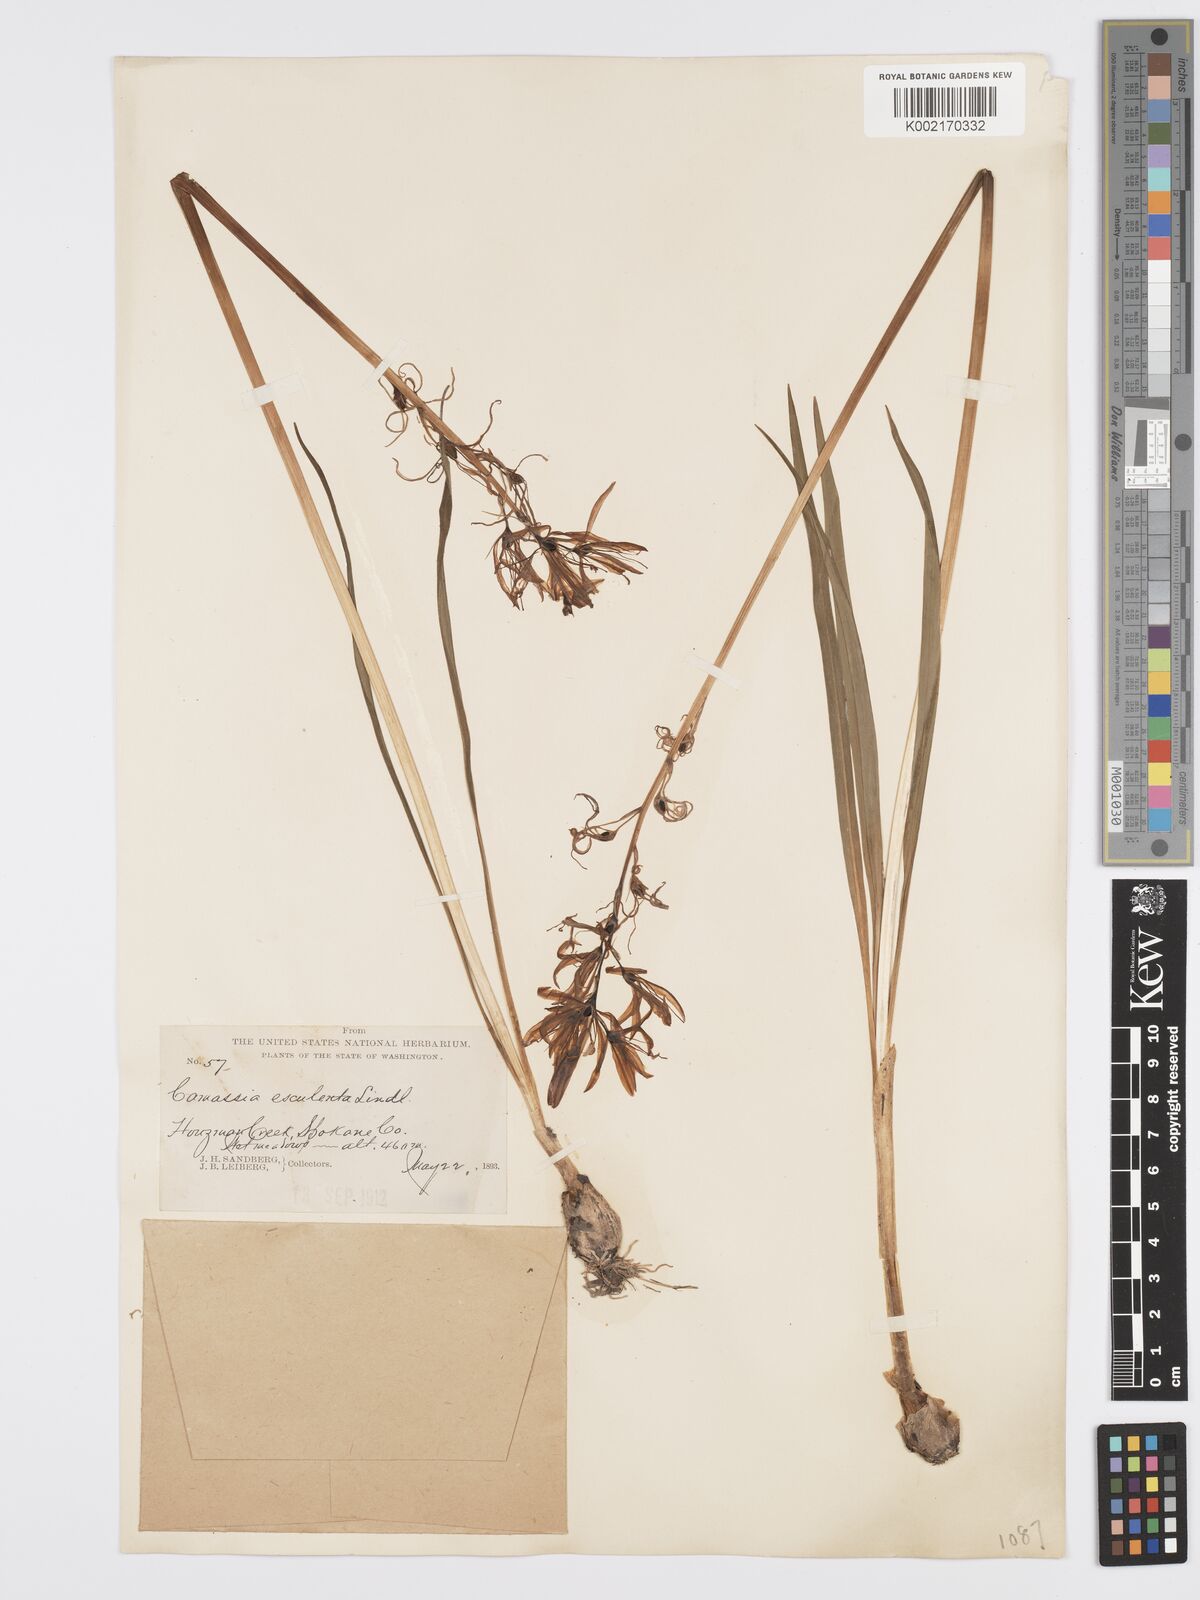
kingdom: Plantae
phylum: Tracheophyta
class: Liliopsida
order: Asparagales
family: Asparagaceae
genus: Camassia
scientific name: Camassia quamash
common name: Common camas
